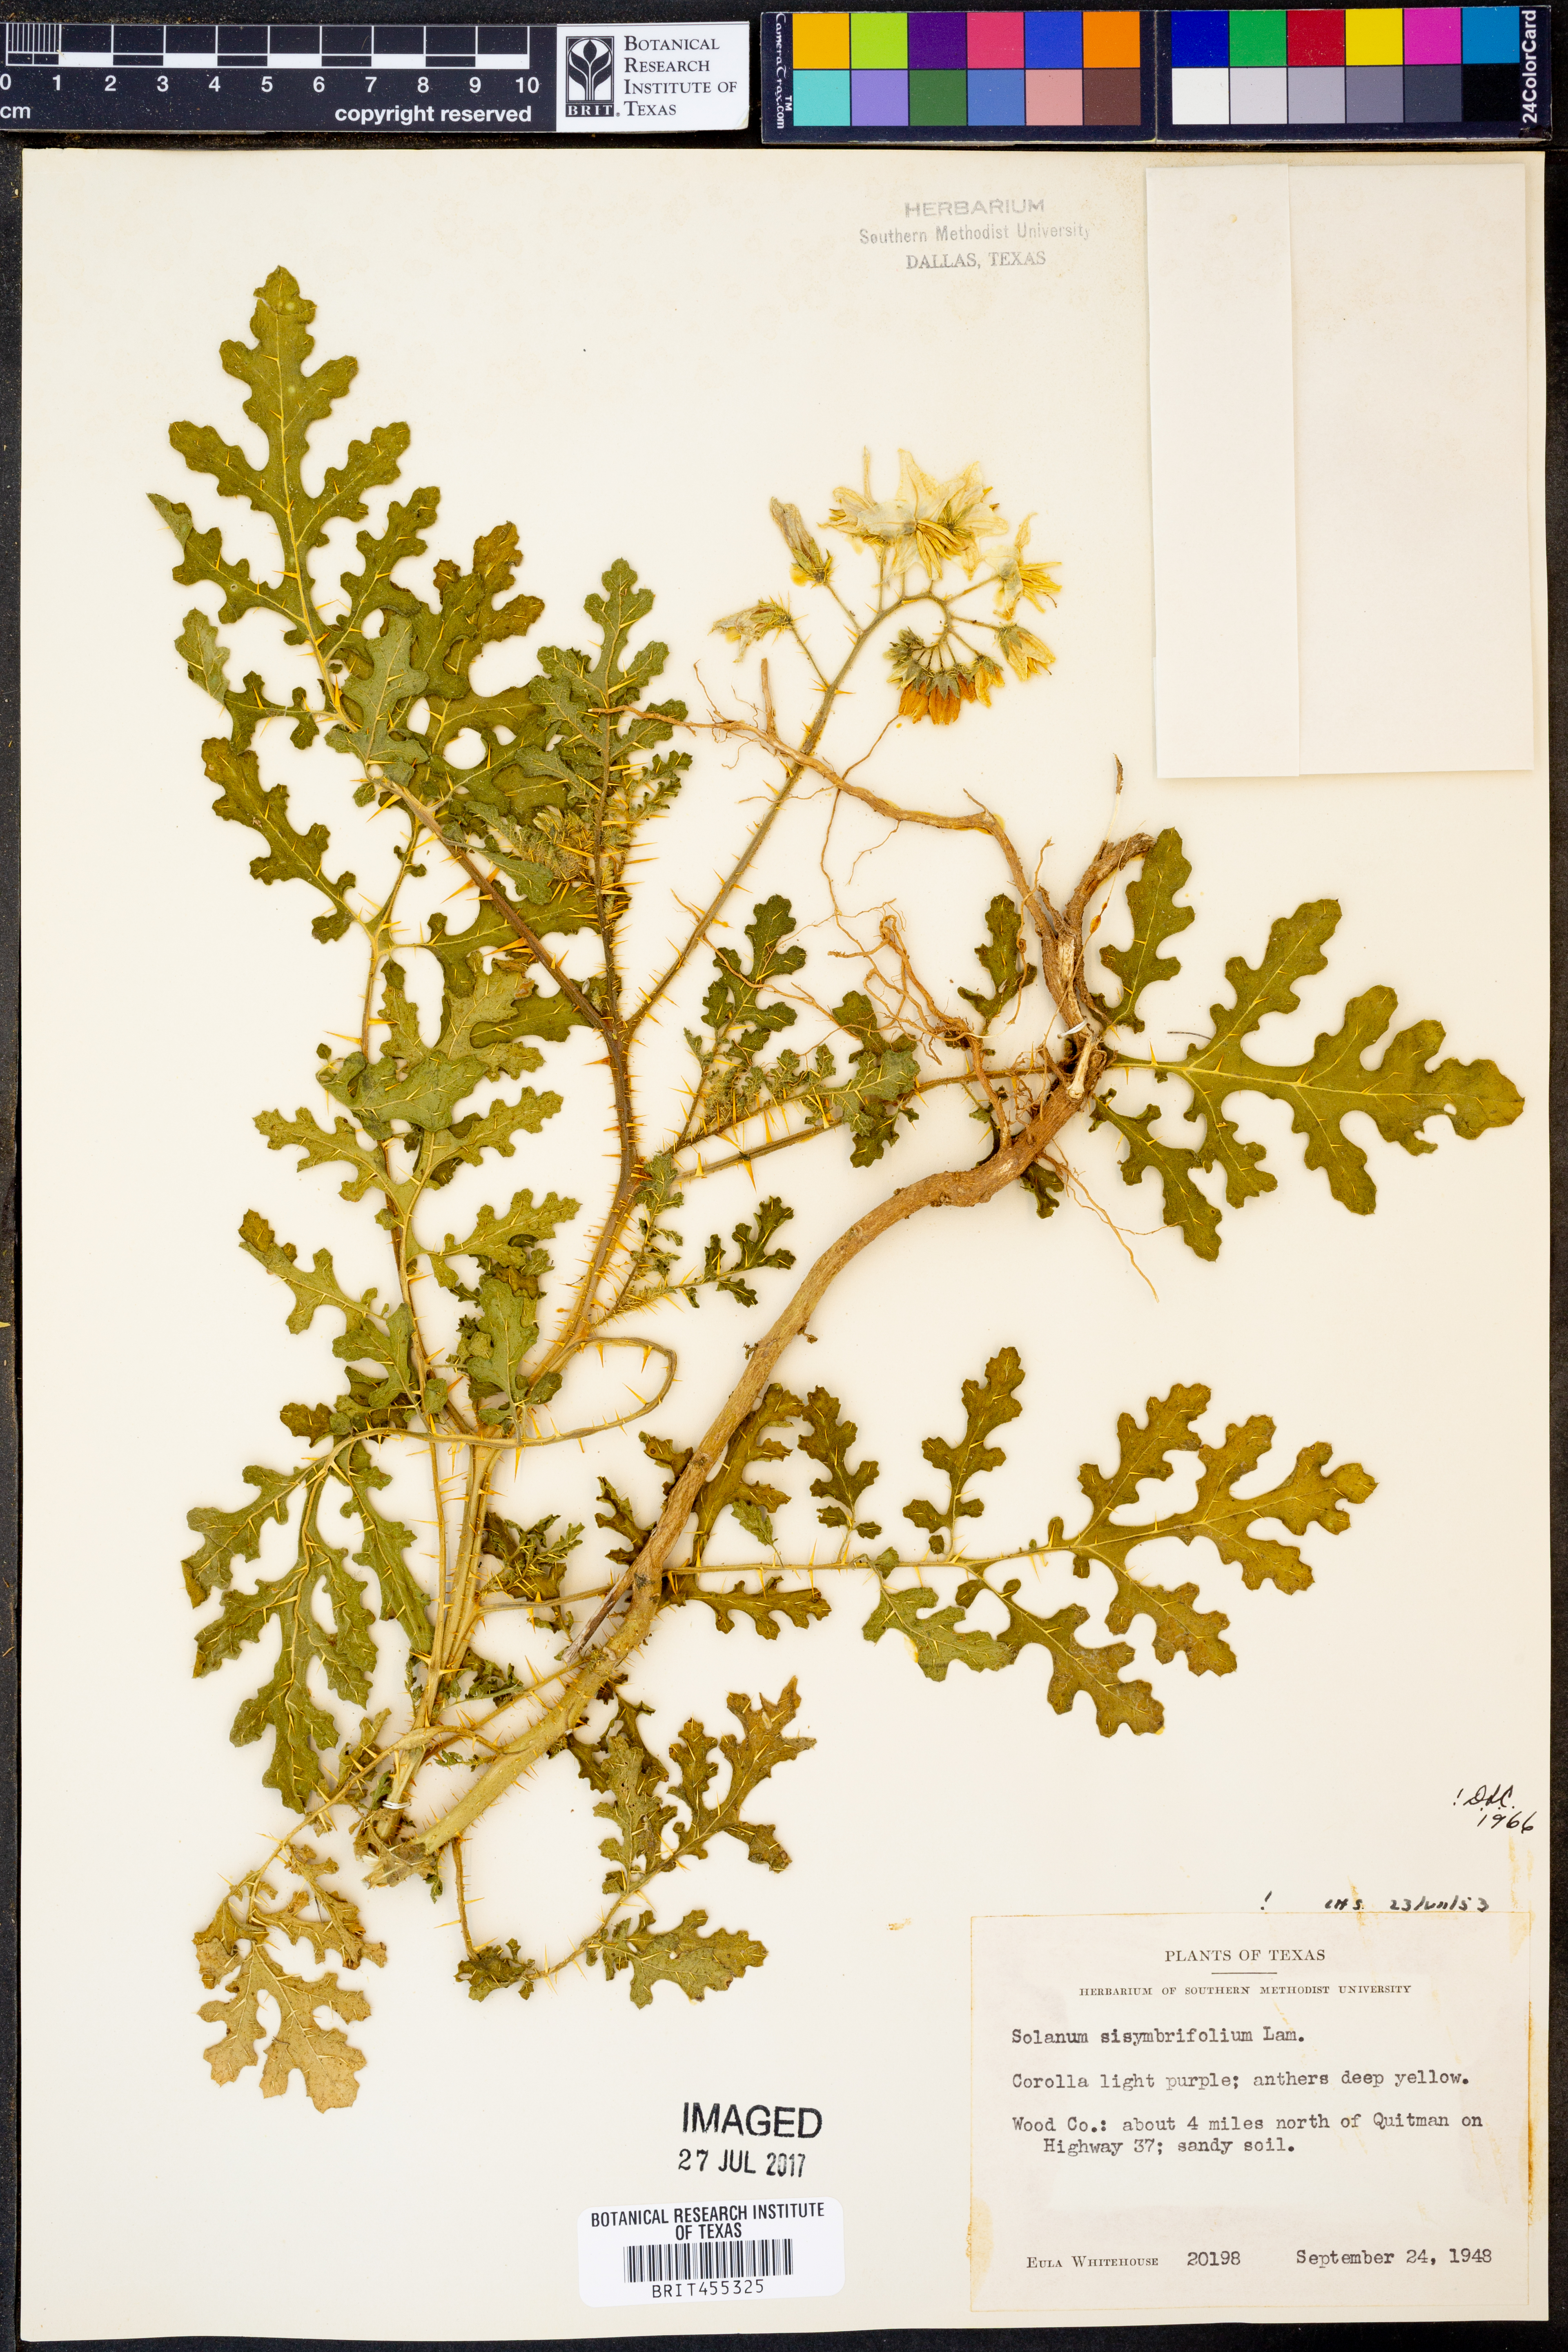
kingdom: Plantae
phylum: Tracheophyta
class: Magnoliopsida
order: Solanales
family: Solanaceae
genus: Solanum
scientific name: Solanum sisymbriifolium
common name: Red buffalo-bur
